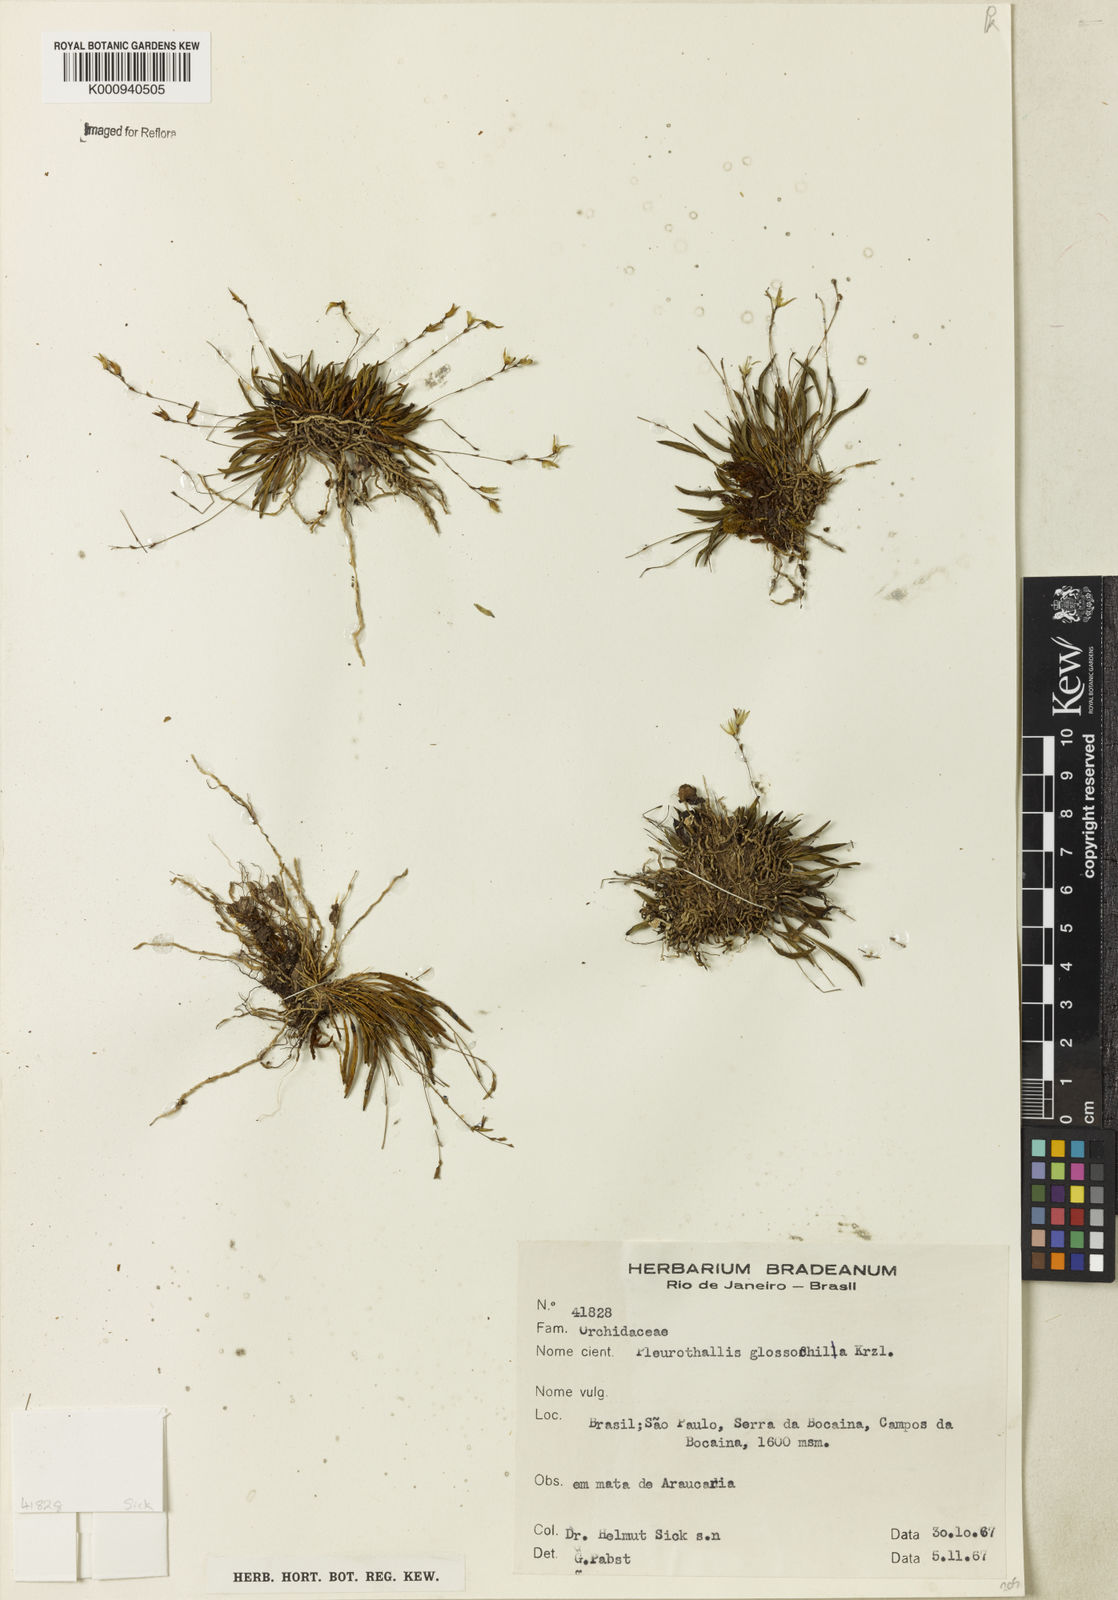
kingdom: Plantae
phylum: Tracheophyta
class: Liliopsida
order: Asparagales
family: Orchidaceae
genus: Anathallis
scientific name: Anathallis linearifolia
